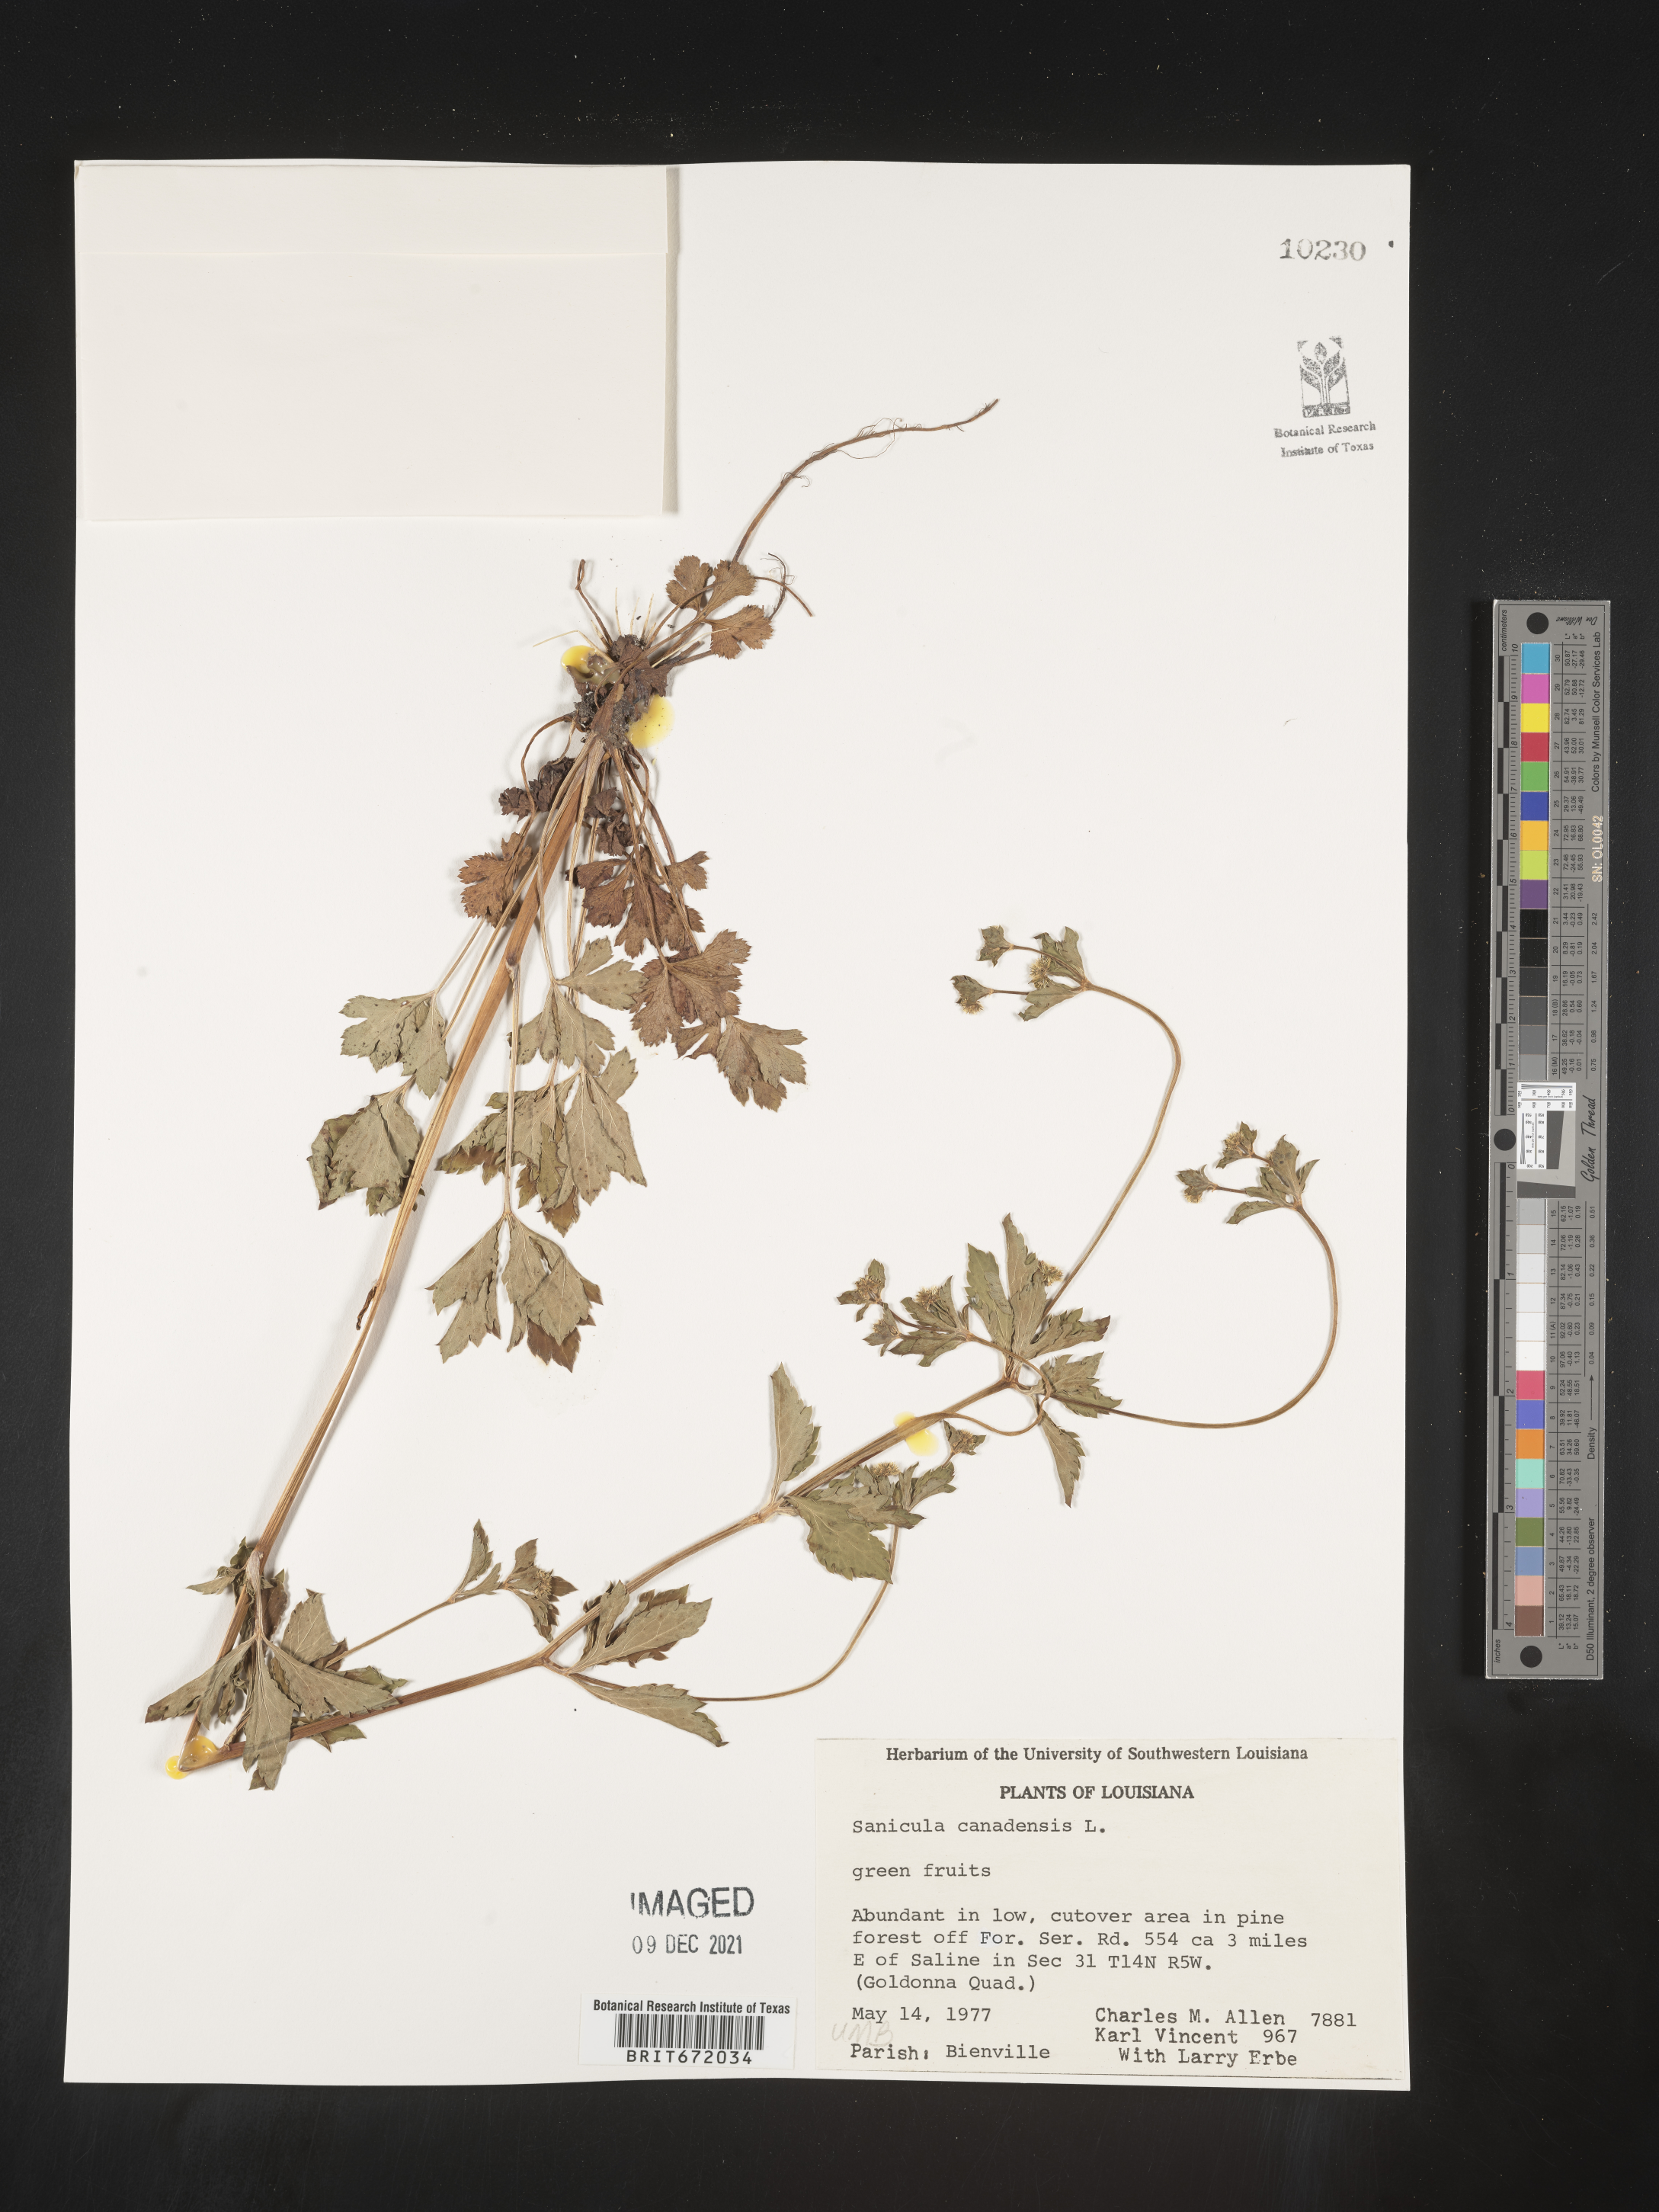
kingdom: Plantae
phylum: Tracheophyta
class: Magnoliopsida
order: Apiales
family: Apiaceae
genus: Sanicula
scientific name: Sanicula canadensis
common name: Canada sanicle
